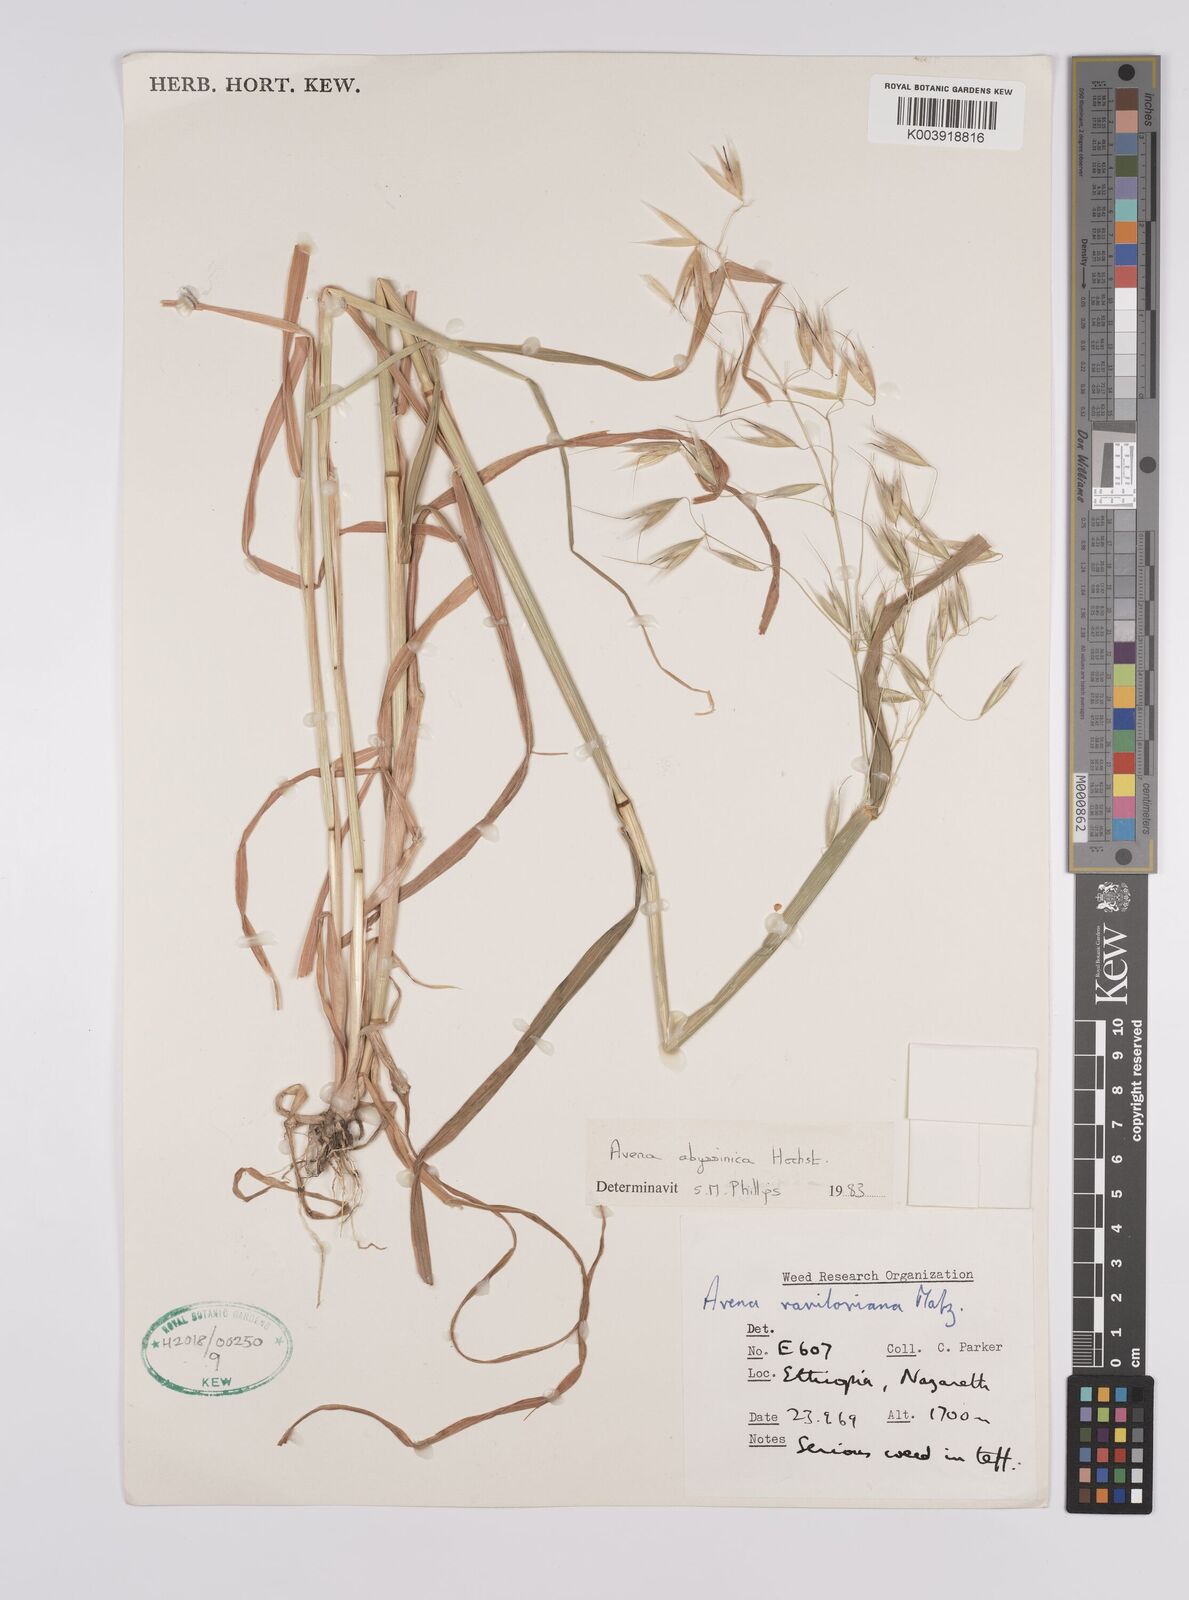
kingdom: Plantae
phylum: Tracheophyta
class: Liliopsida
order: Poales
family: Poaceae
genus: Avena
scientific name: Avena abyssinica
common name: Ethiopian oat
